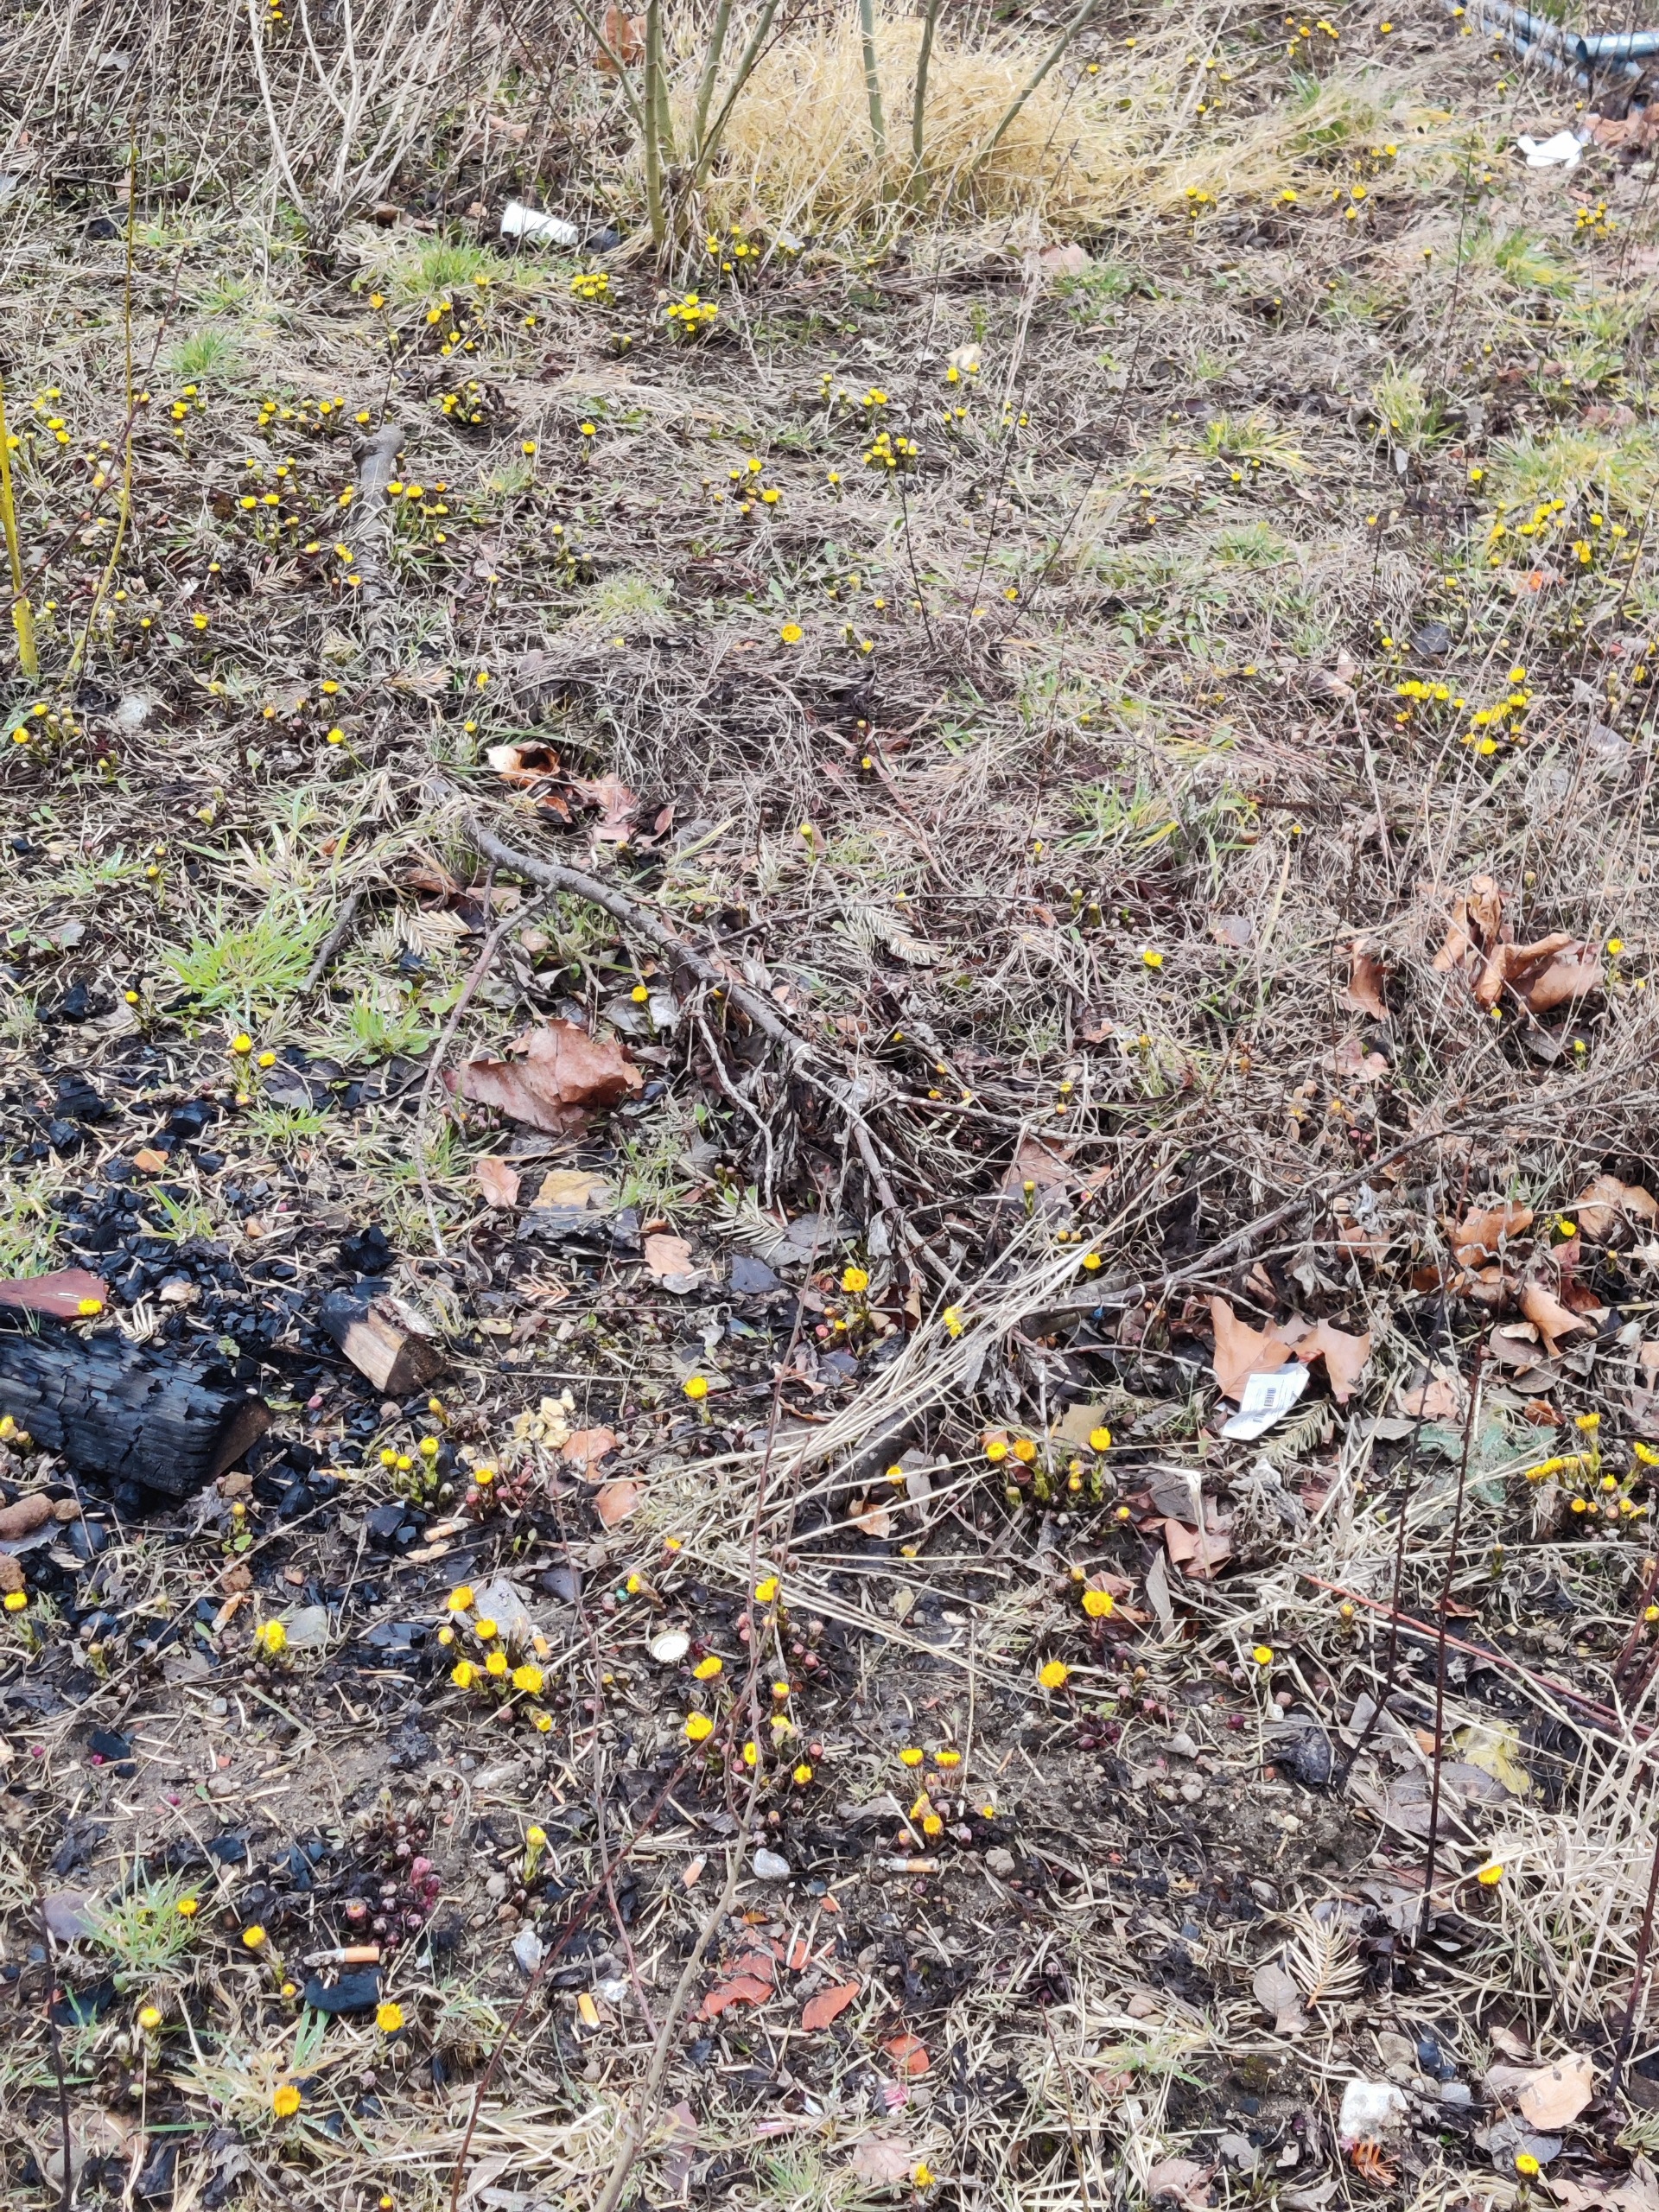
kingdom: Plantae
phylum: Tracheophyta
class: Magnoliopsida
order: Asterales
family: Asteraceae
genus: Tussilago
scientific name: Tussilago farfara
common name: Følfod
